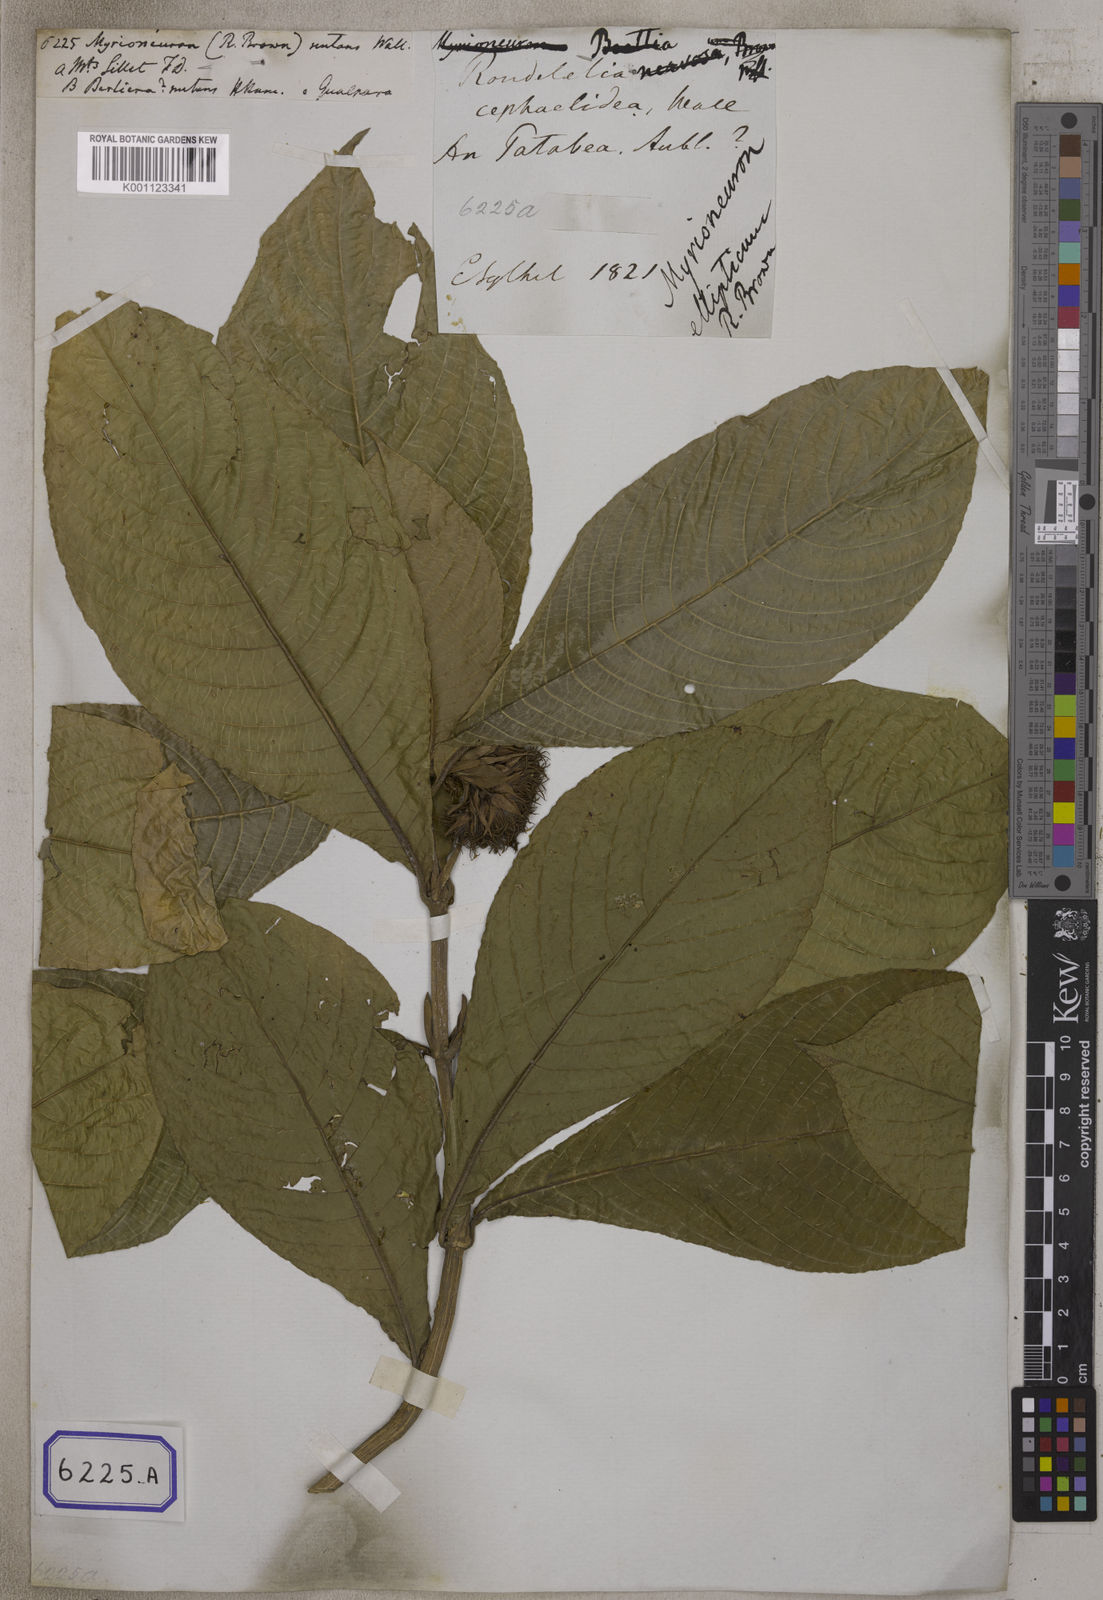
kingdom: Plantae
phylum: Tracheophyta
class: Magnoliopsida
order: Gentianales
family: Rubiaceae
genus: Myrioneuron
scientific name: Myrioneuron
